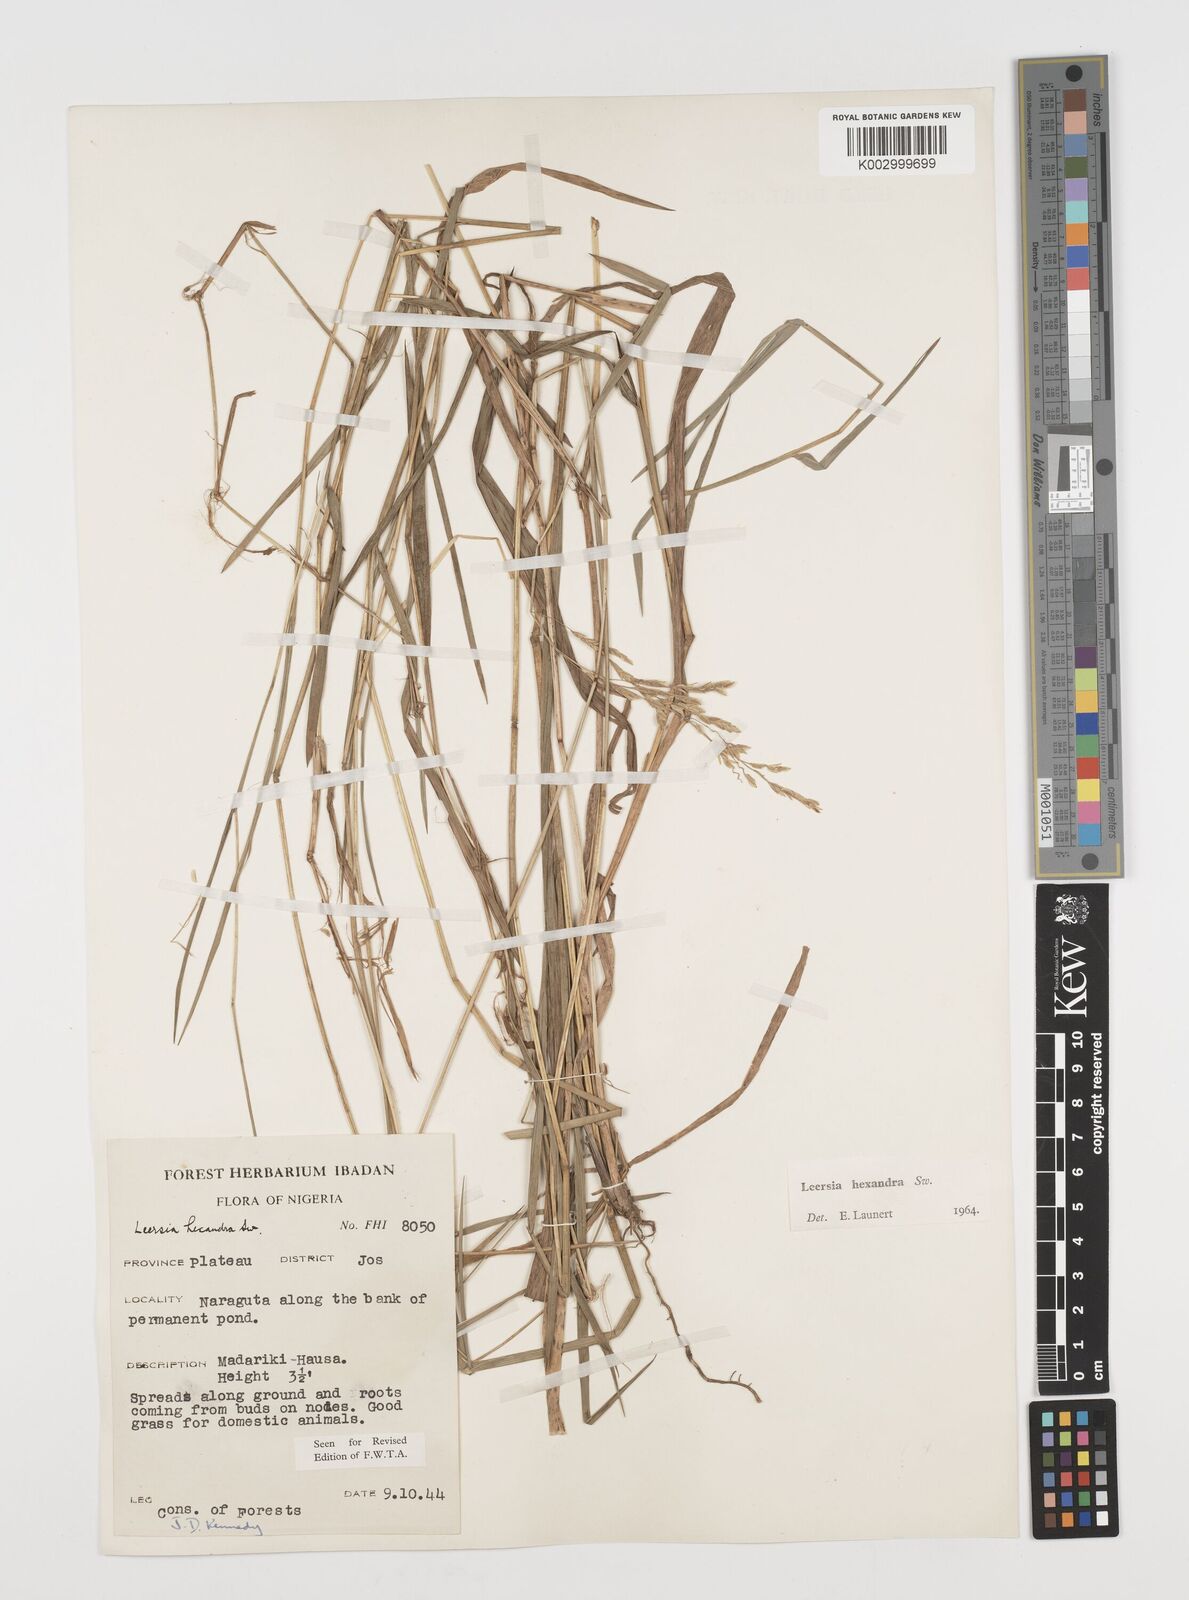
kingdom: Plantae
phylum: Tracheophyta
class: Liliopsida
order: Poales
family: Poaceae
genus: Leersia
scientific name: Leersia hexandra
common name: Southern cut grass
